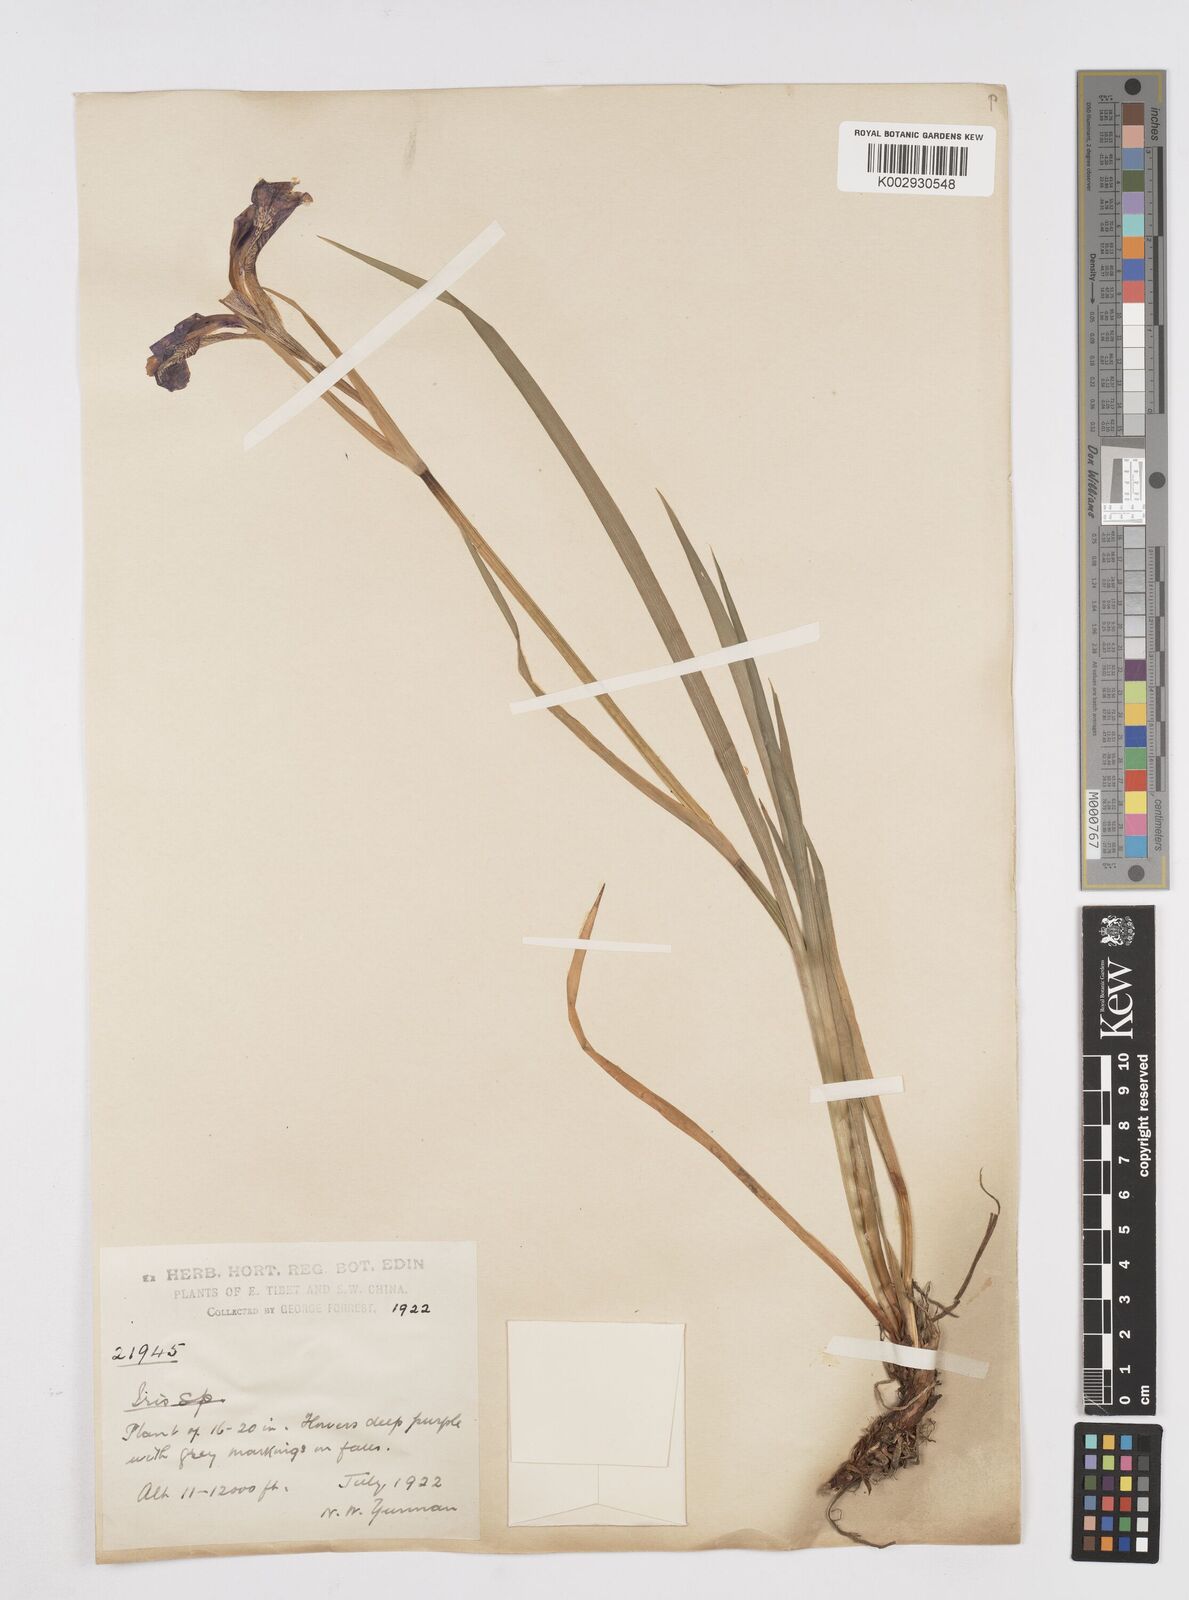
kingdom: Plantae
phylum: Tracheophyta
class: Liliopsida
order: Asparagales
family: Iridaceae
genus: Iris
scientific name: Iris bulleyana
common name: Southwest iris
